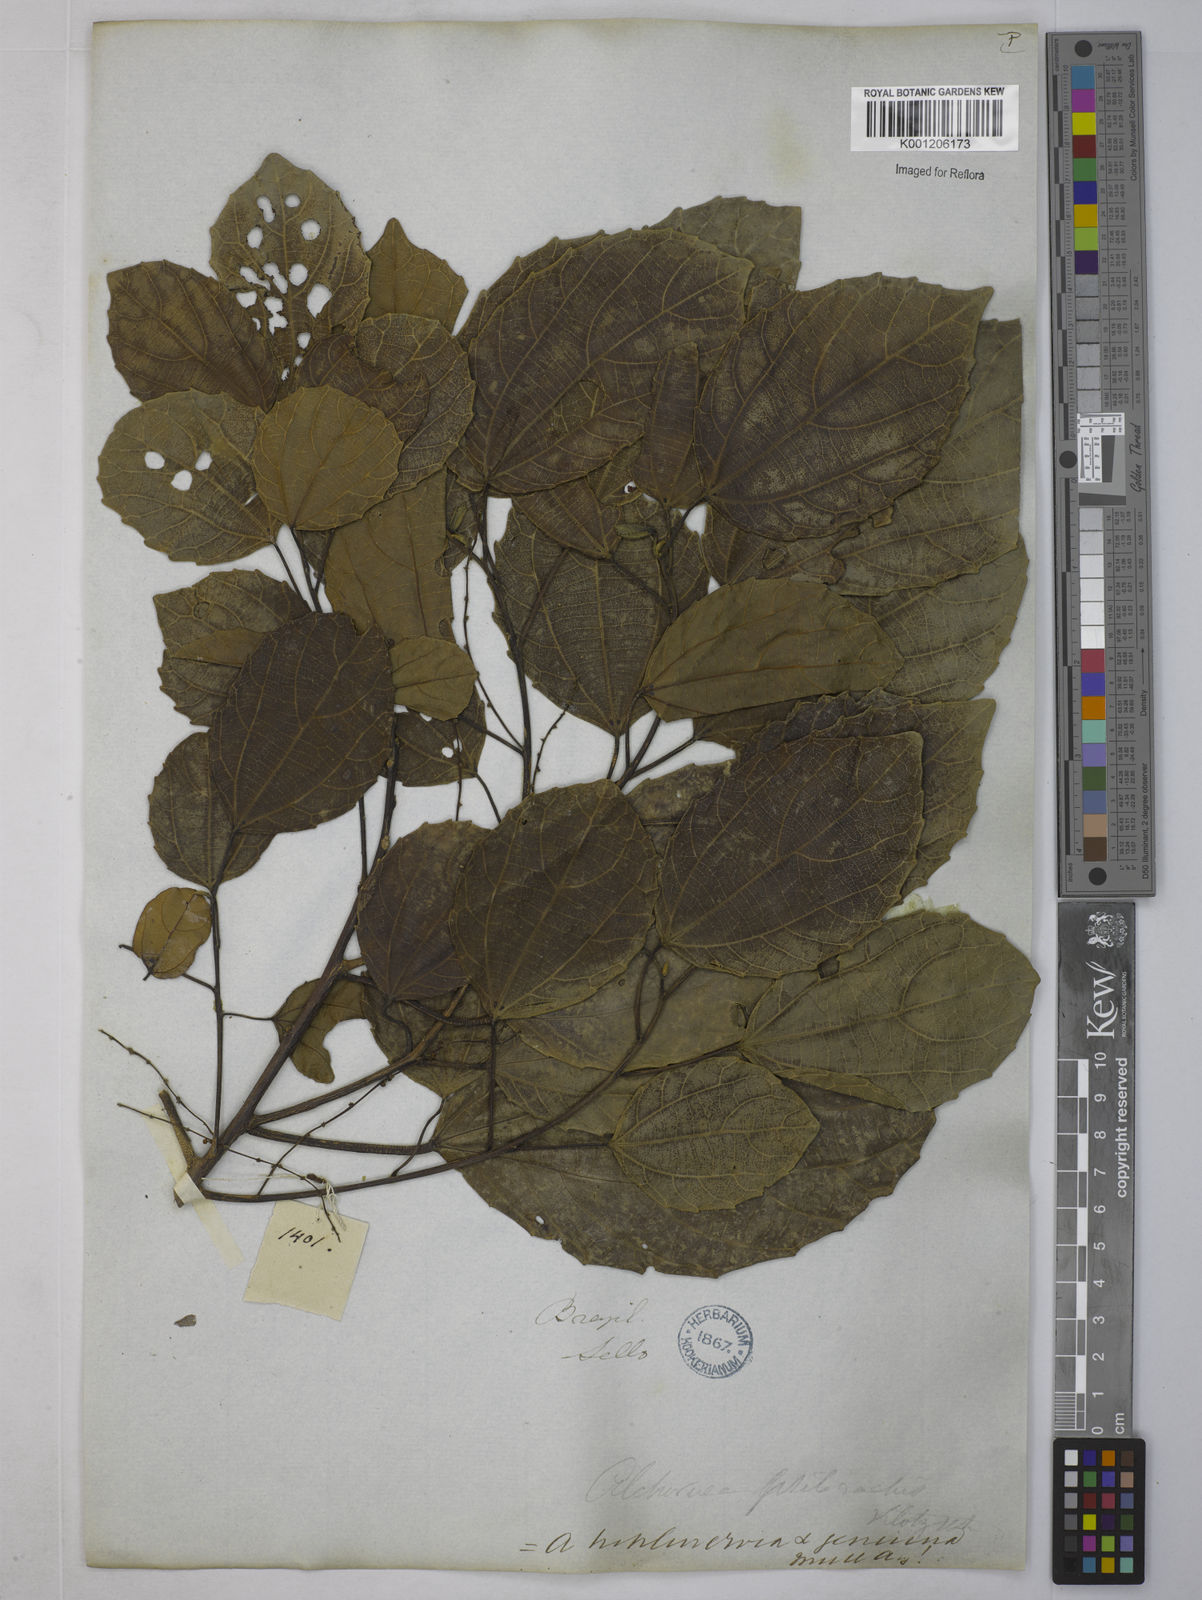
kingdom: Plantae
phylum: Tracheophyta
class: Magnoliopsida
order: Malpighiales
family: Euphorbiaceae
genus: Alchornea
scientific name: Alchornea triplinervia
